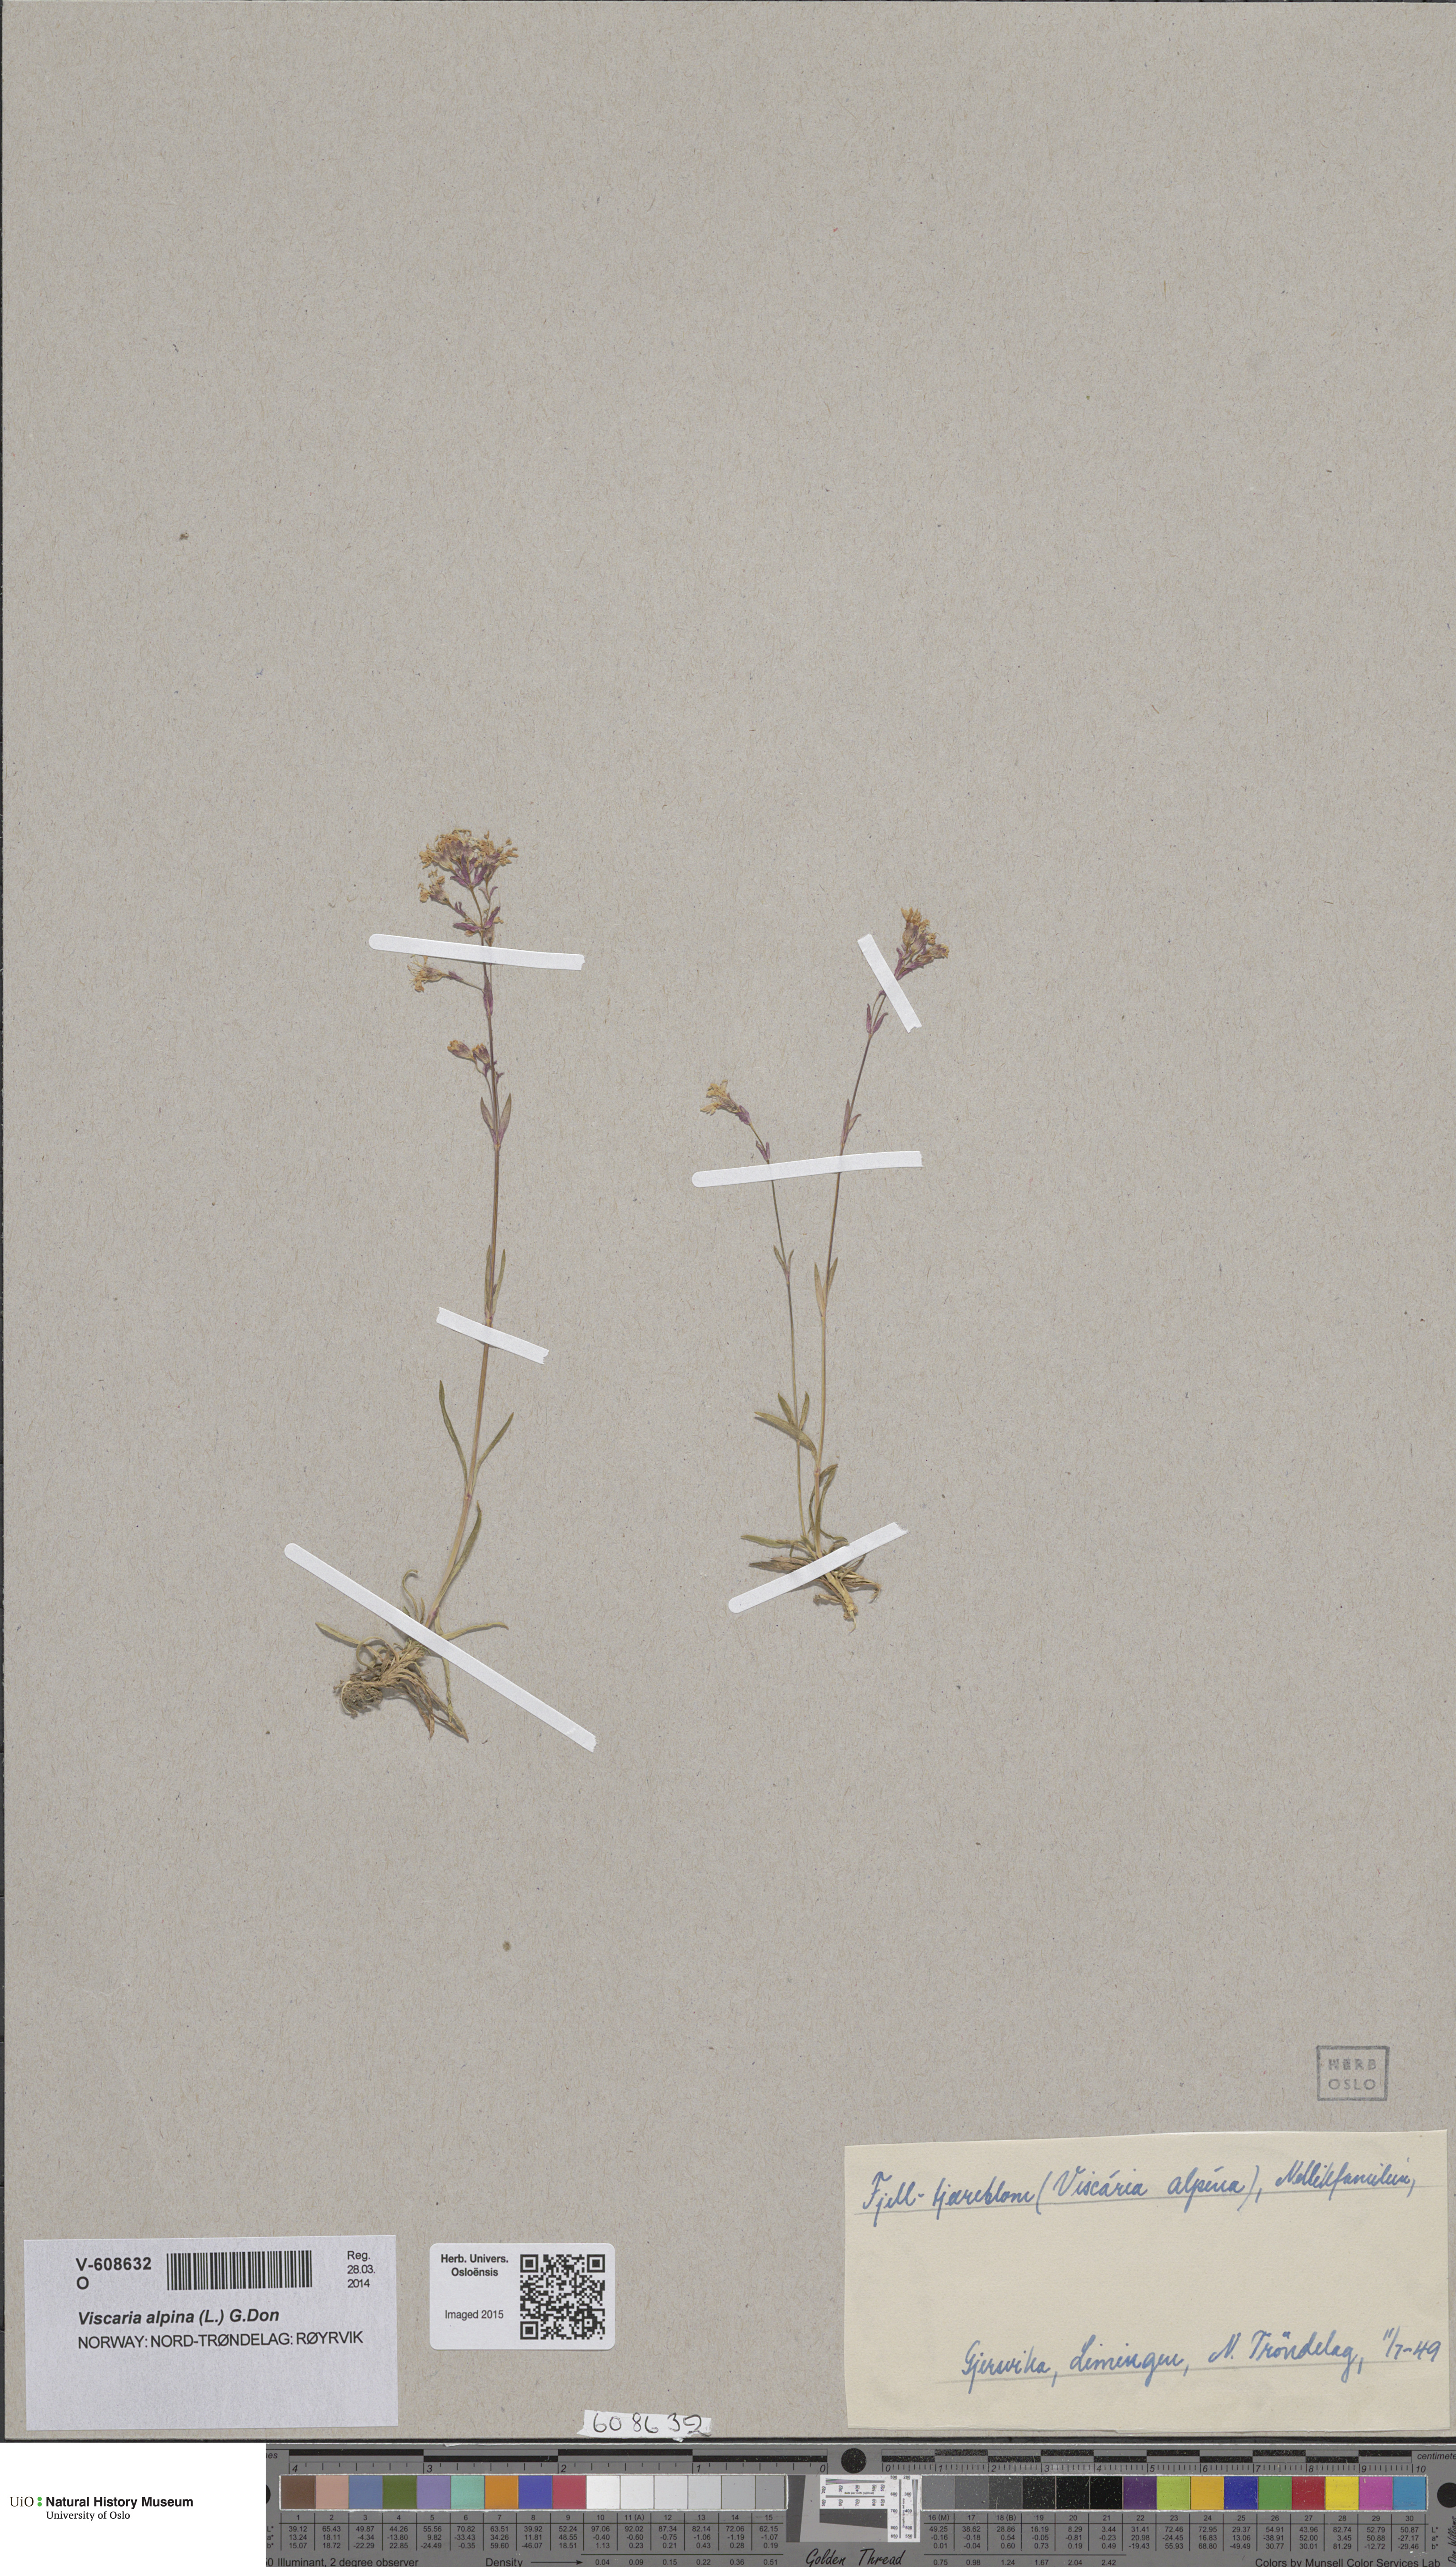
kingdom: Plantae
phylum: Tracheophyta
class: Magnoliopsida
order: Caryophyllales
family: Caryophyllaceae
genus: Viscaria
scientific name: Viscaria alpina
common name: Alpine campion
